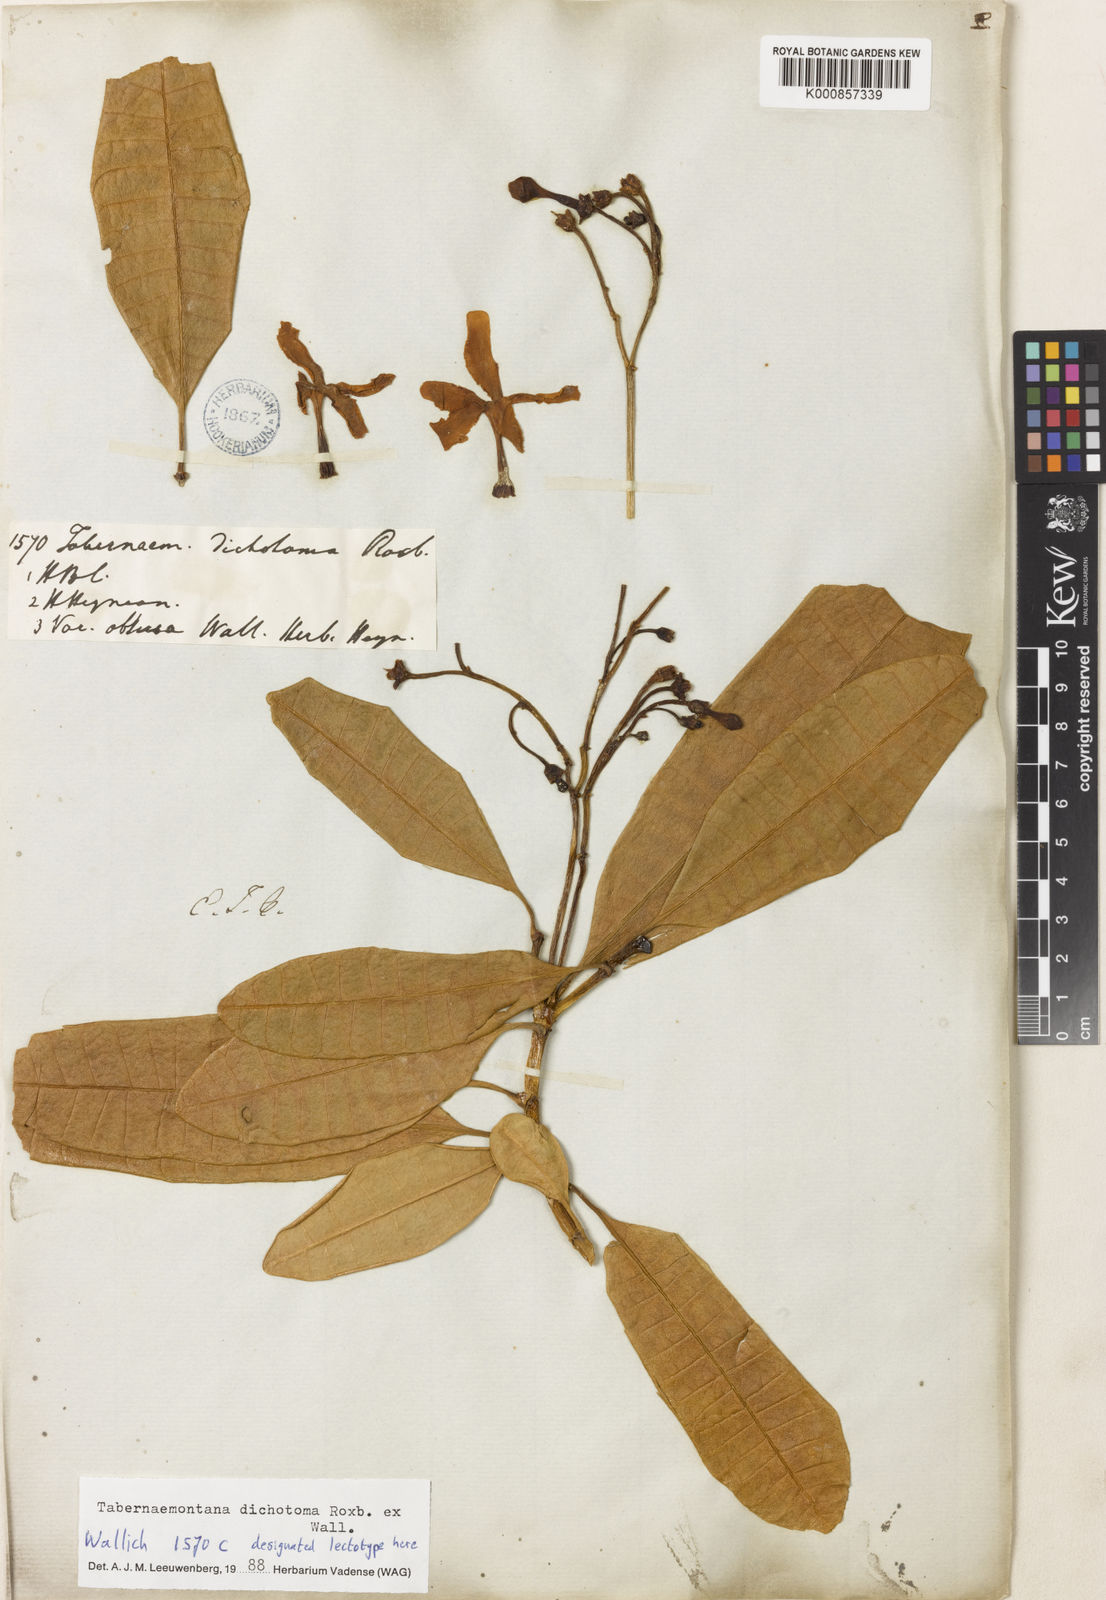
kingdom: Plantae
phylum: Tracheophyta
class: Magnoliopsida
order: Gentianales
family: Apocynaceae
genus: Tabernaemontana
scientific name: Tabernaemontana dichotoma
